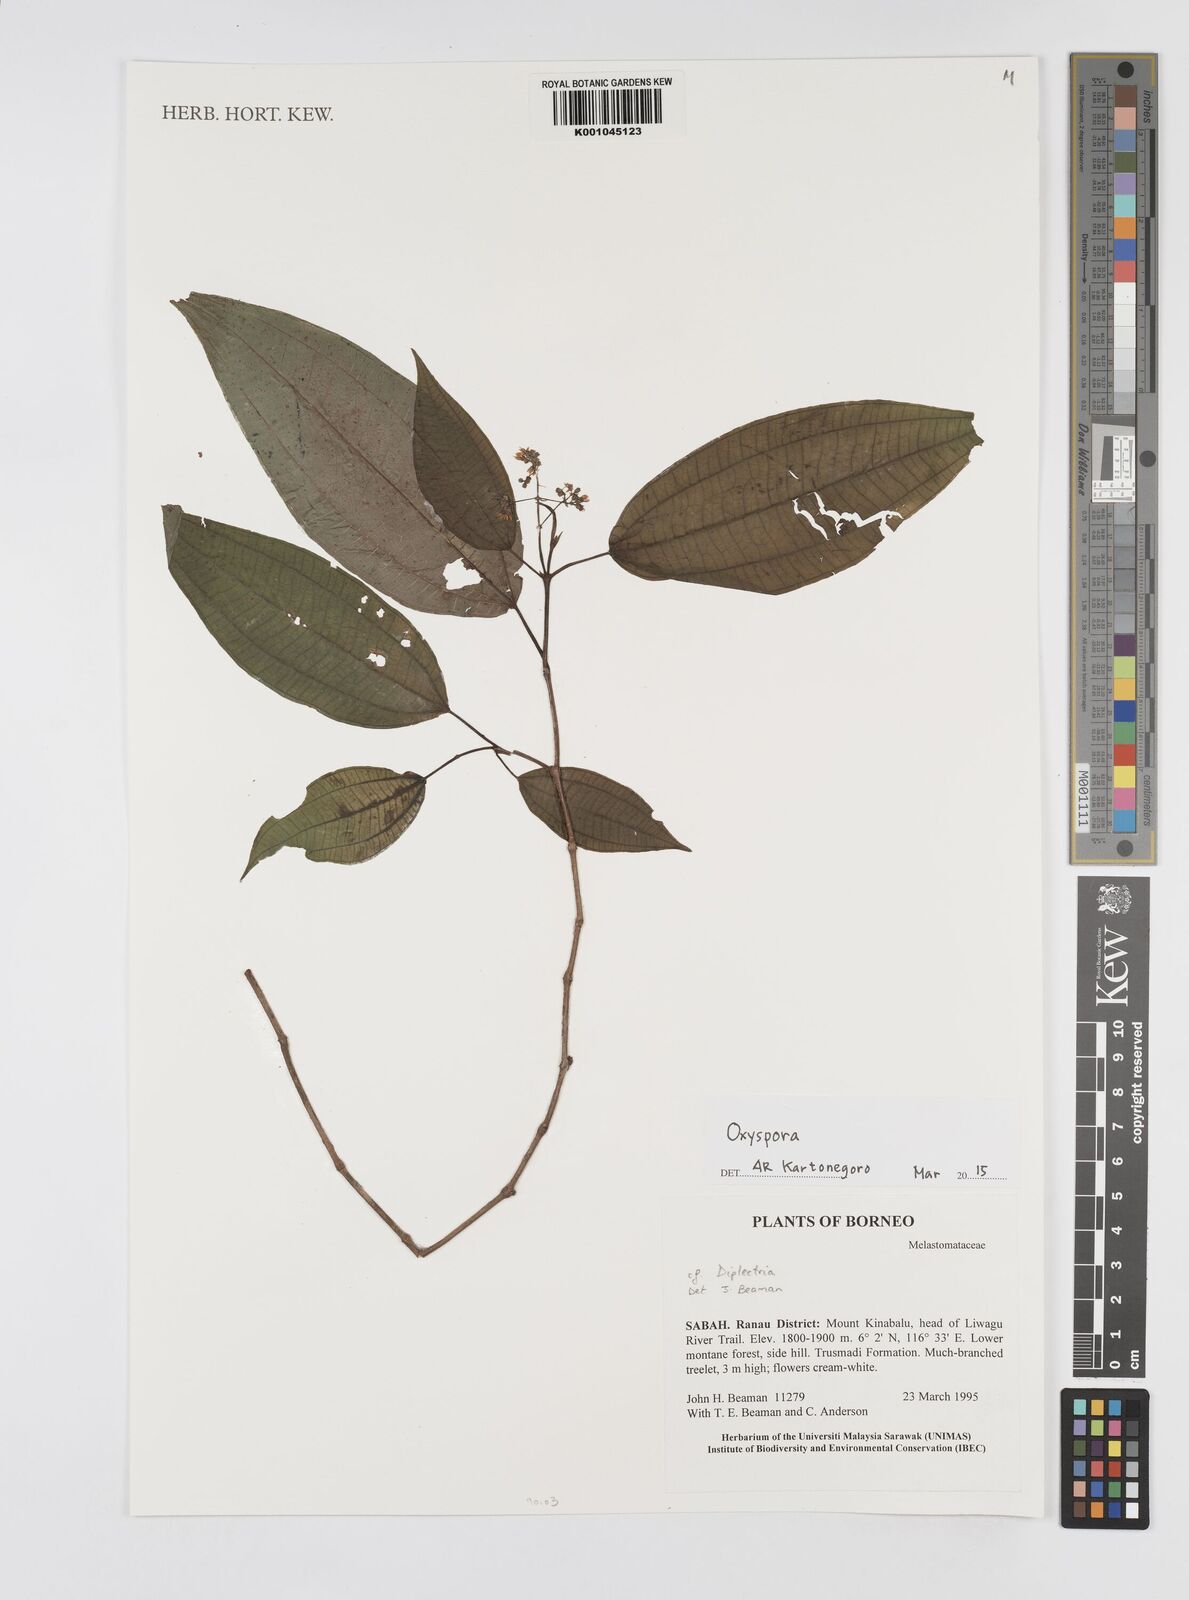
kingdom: Plantae
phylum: Tracheophyta
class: Magnoliopsida
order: Myrtales
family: Melastomataceae
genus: Oxyspora
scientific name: Oxyspora
